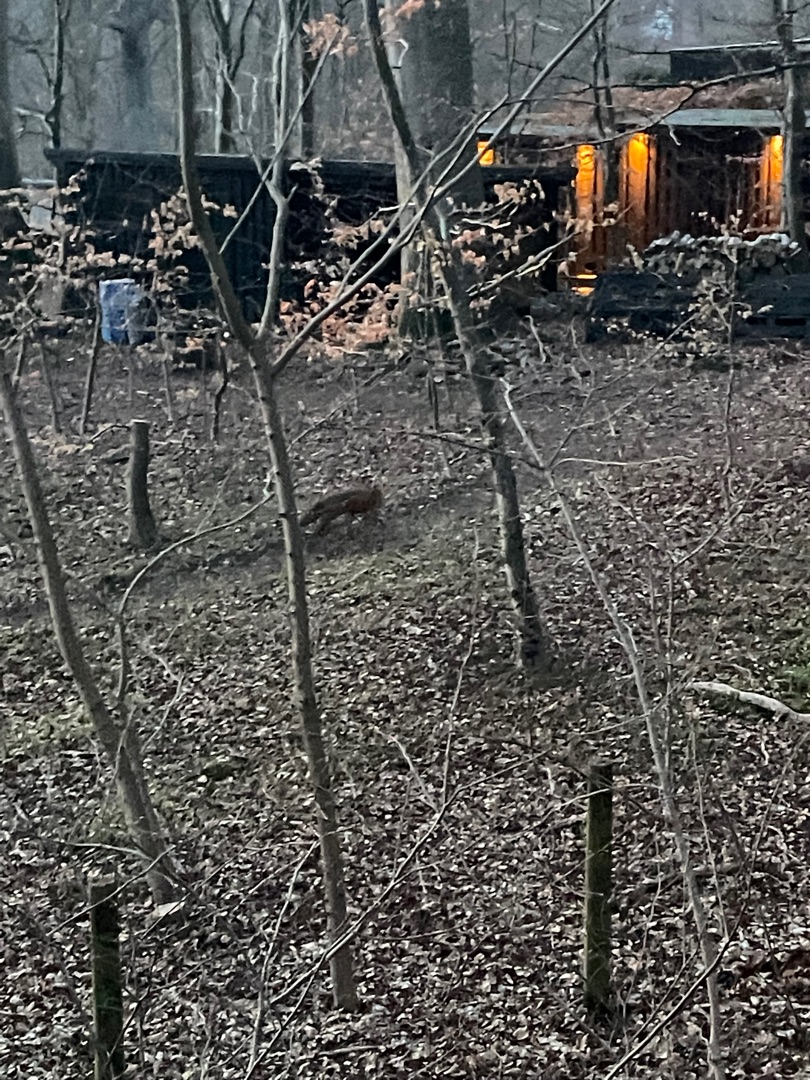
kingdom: Animalia
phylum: Chordata
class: Mammalia
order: Carnivora
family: Canidae
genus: Vulpes
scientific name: Vulpes vulpes
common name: Ræv
